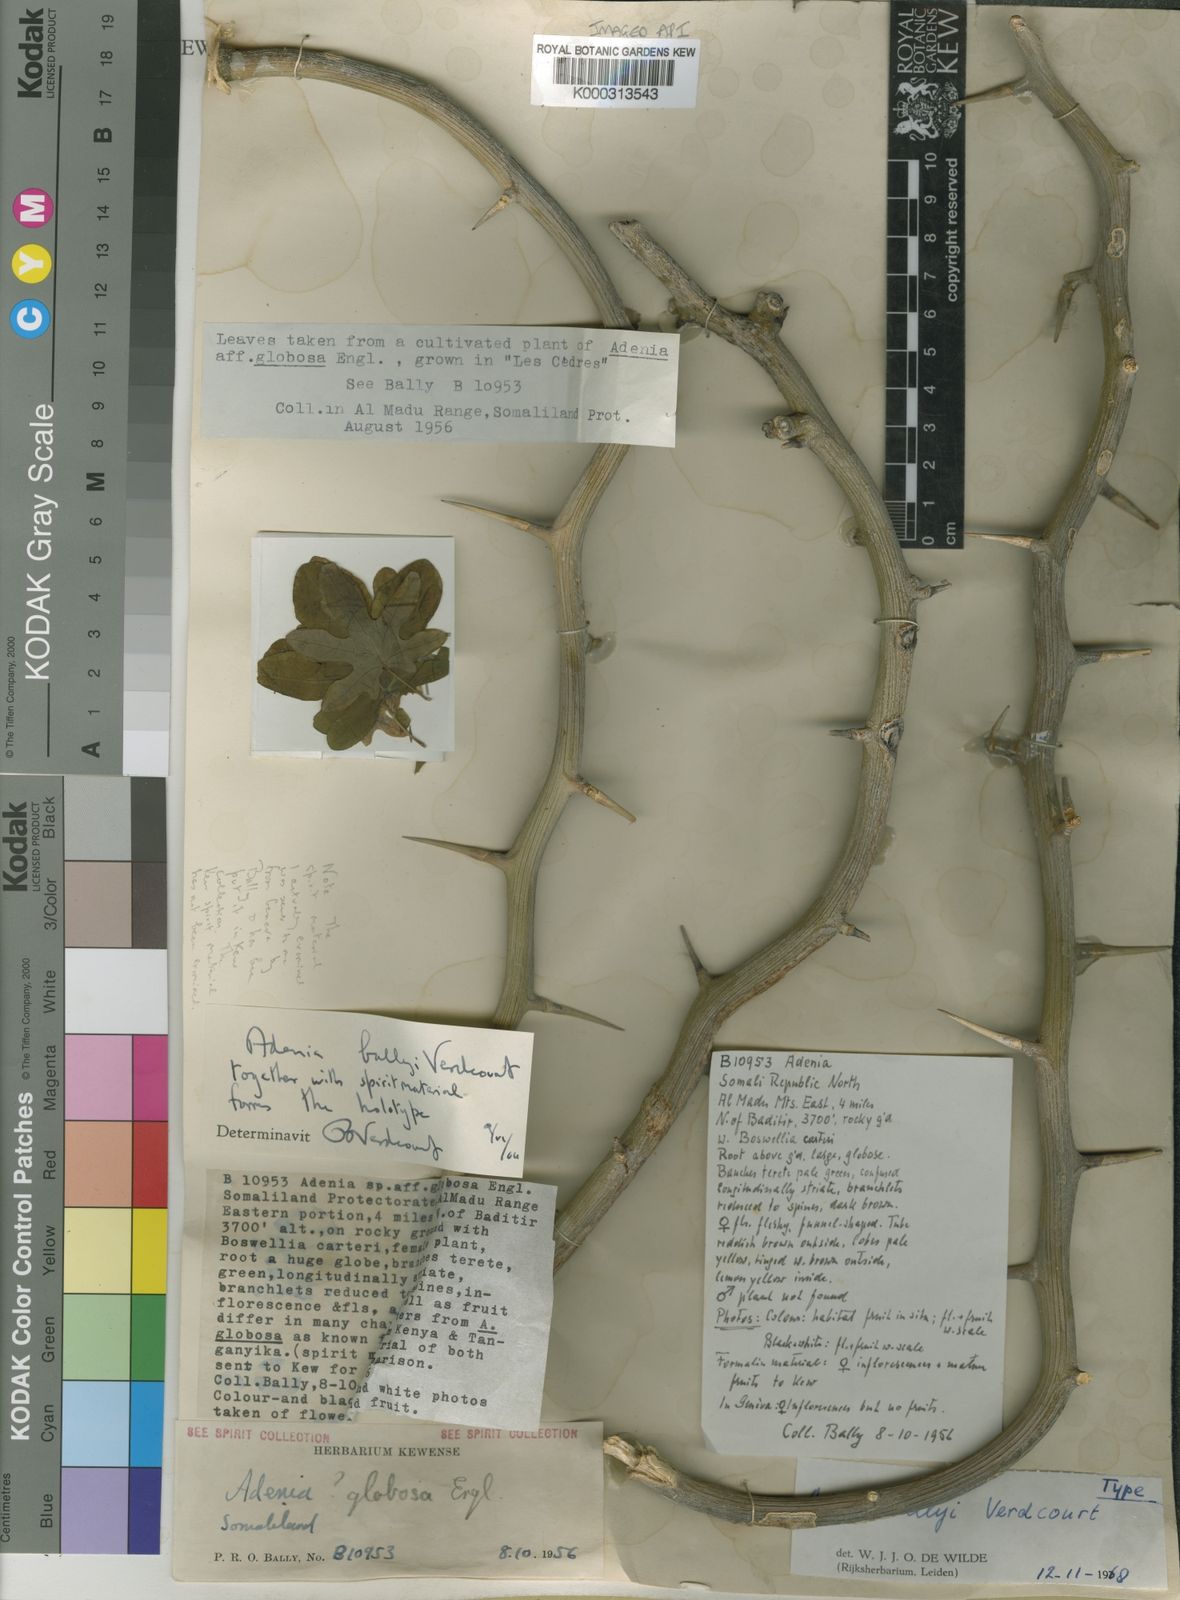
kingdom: Plantae
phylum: Tracheophyta
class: Magnoliopsida
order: Malpighiales
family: Passifloraceae
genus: Adenia
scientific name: Adenia ballyi
